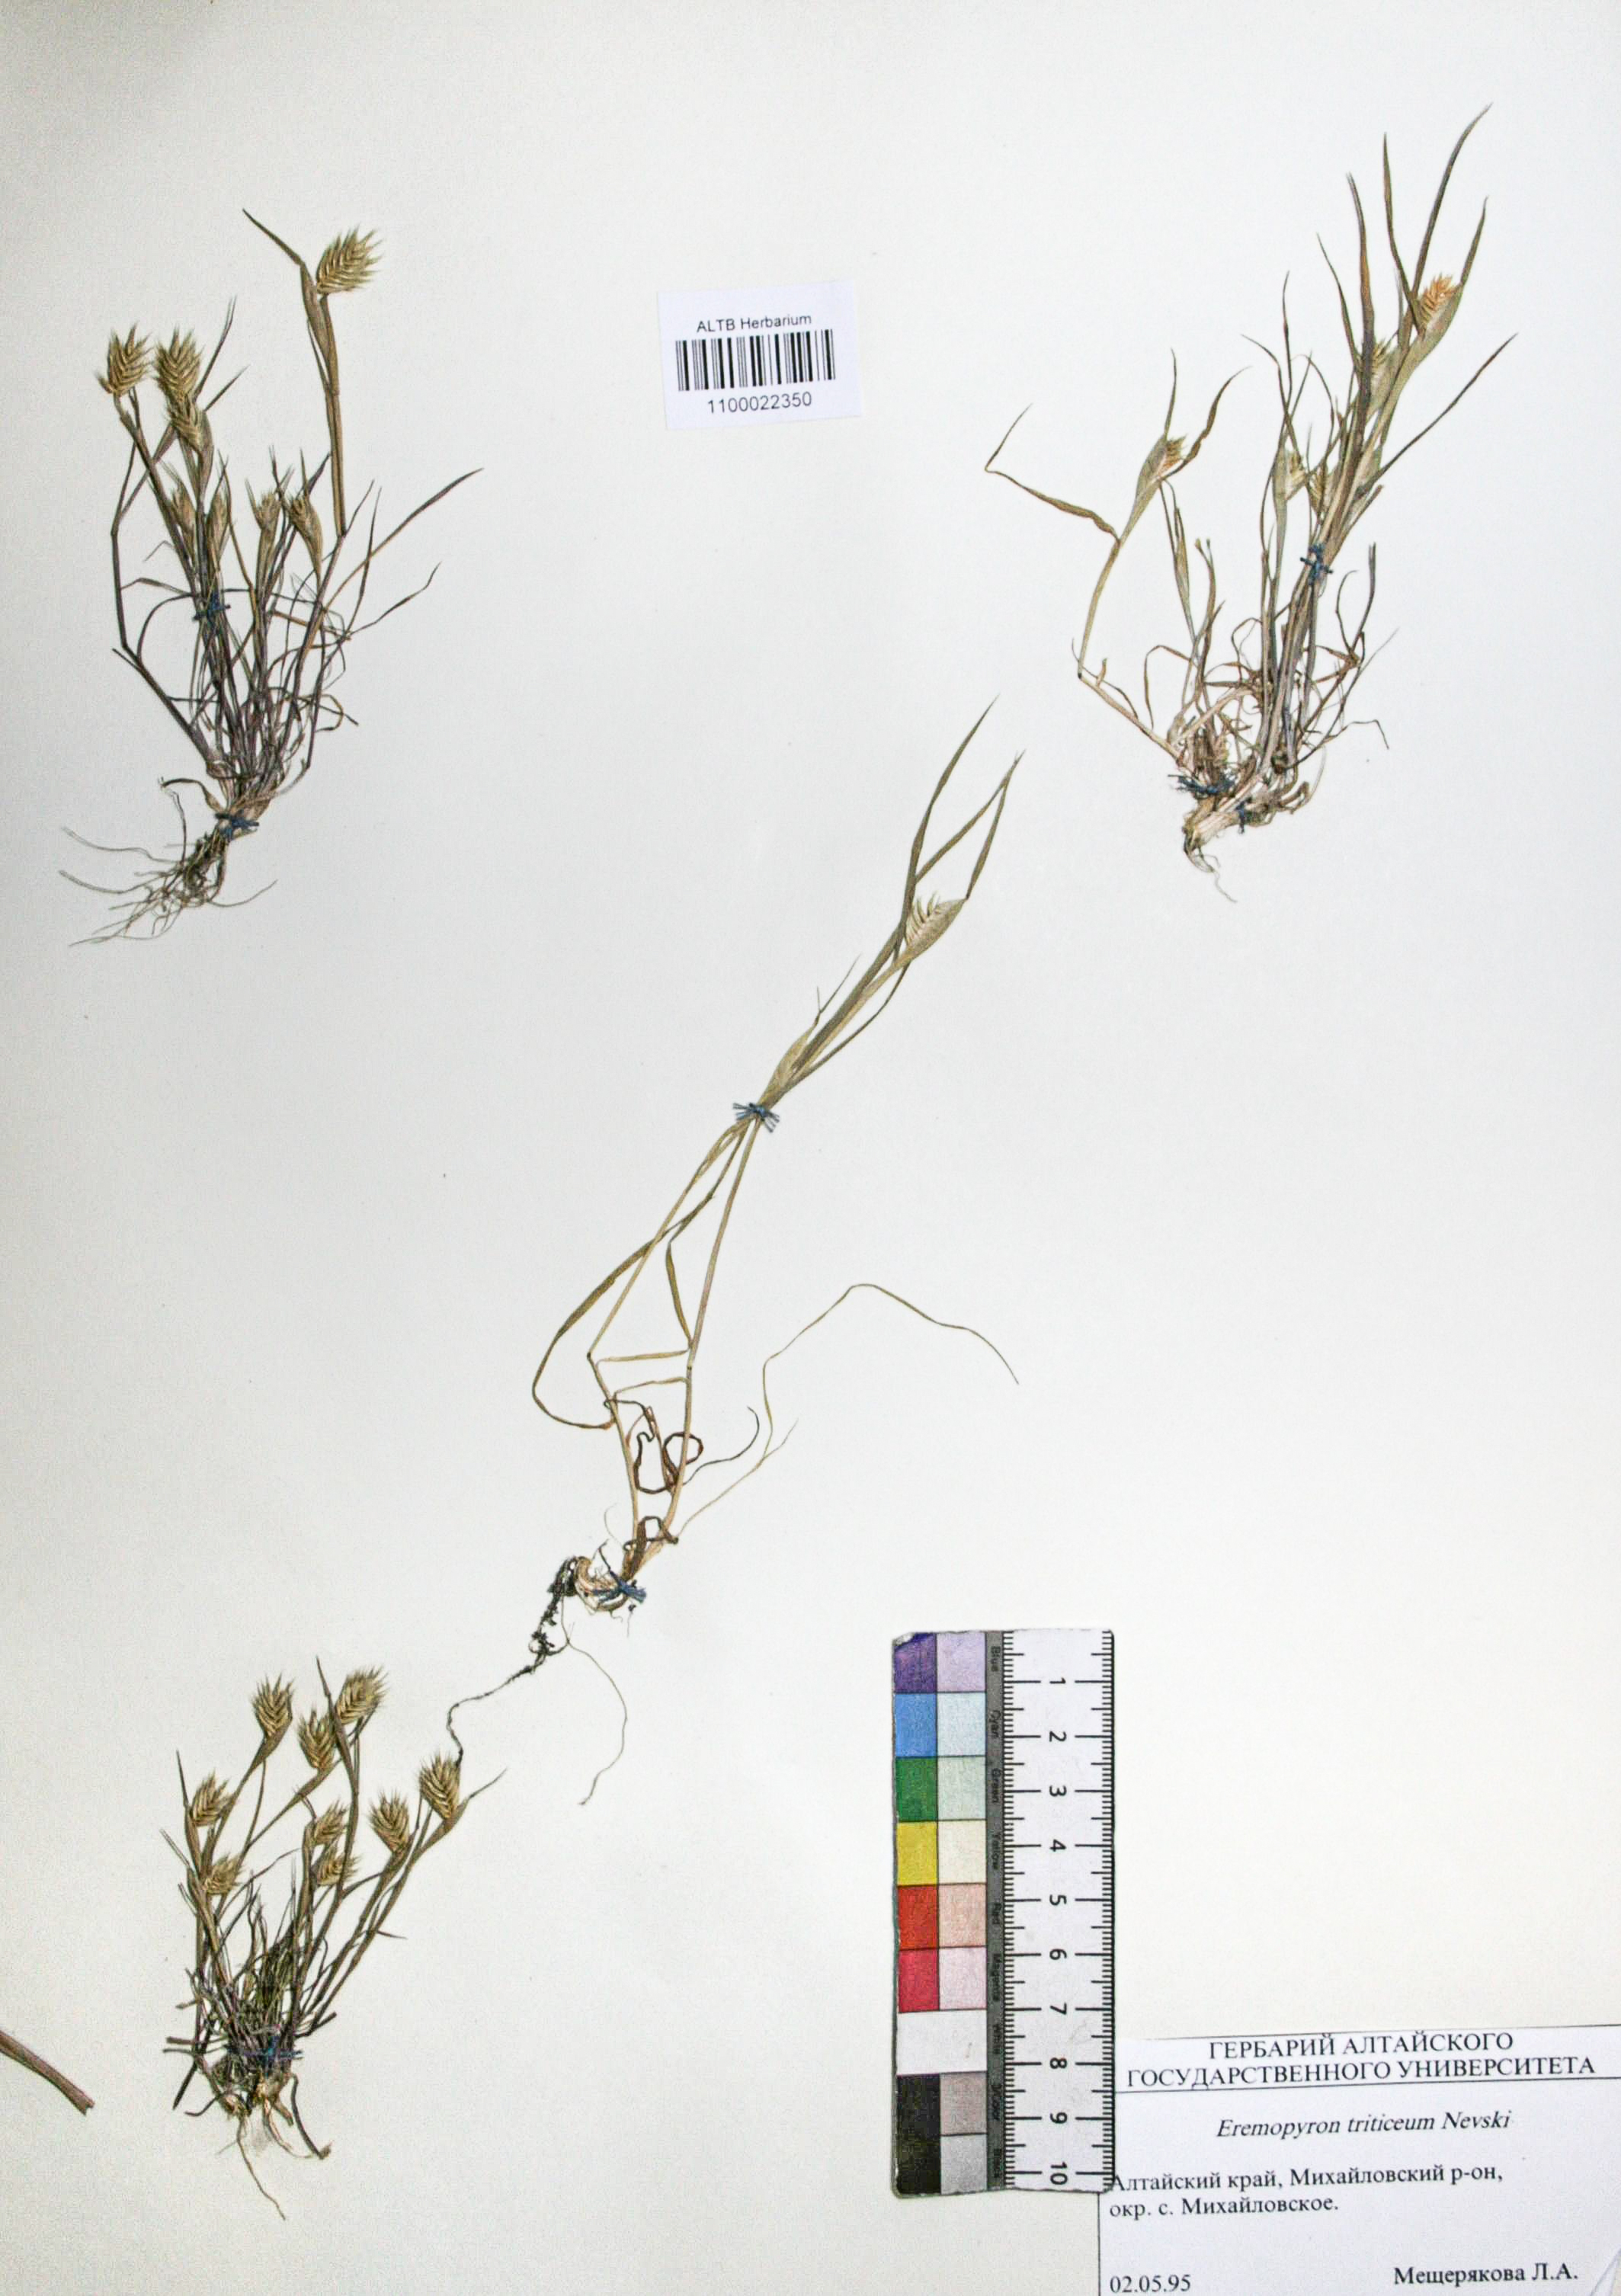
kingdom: Plantae
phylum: Tracheophyta
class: Liliopsida
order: Poales
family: Poaceae
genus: Eremopyrum
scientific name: Eremopyrum triticeum
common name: Annual wheatgrass
